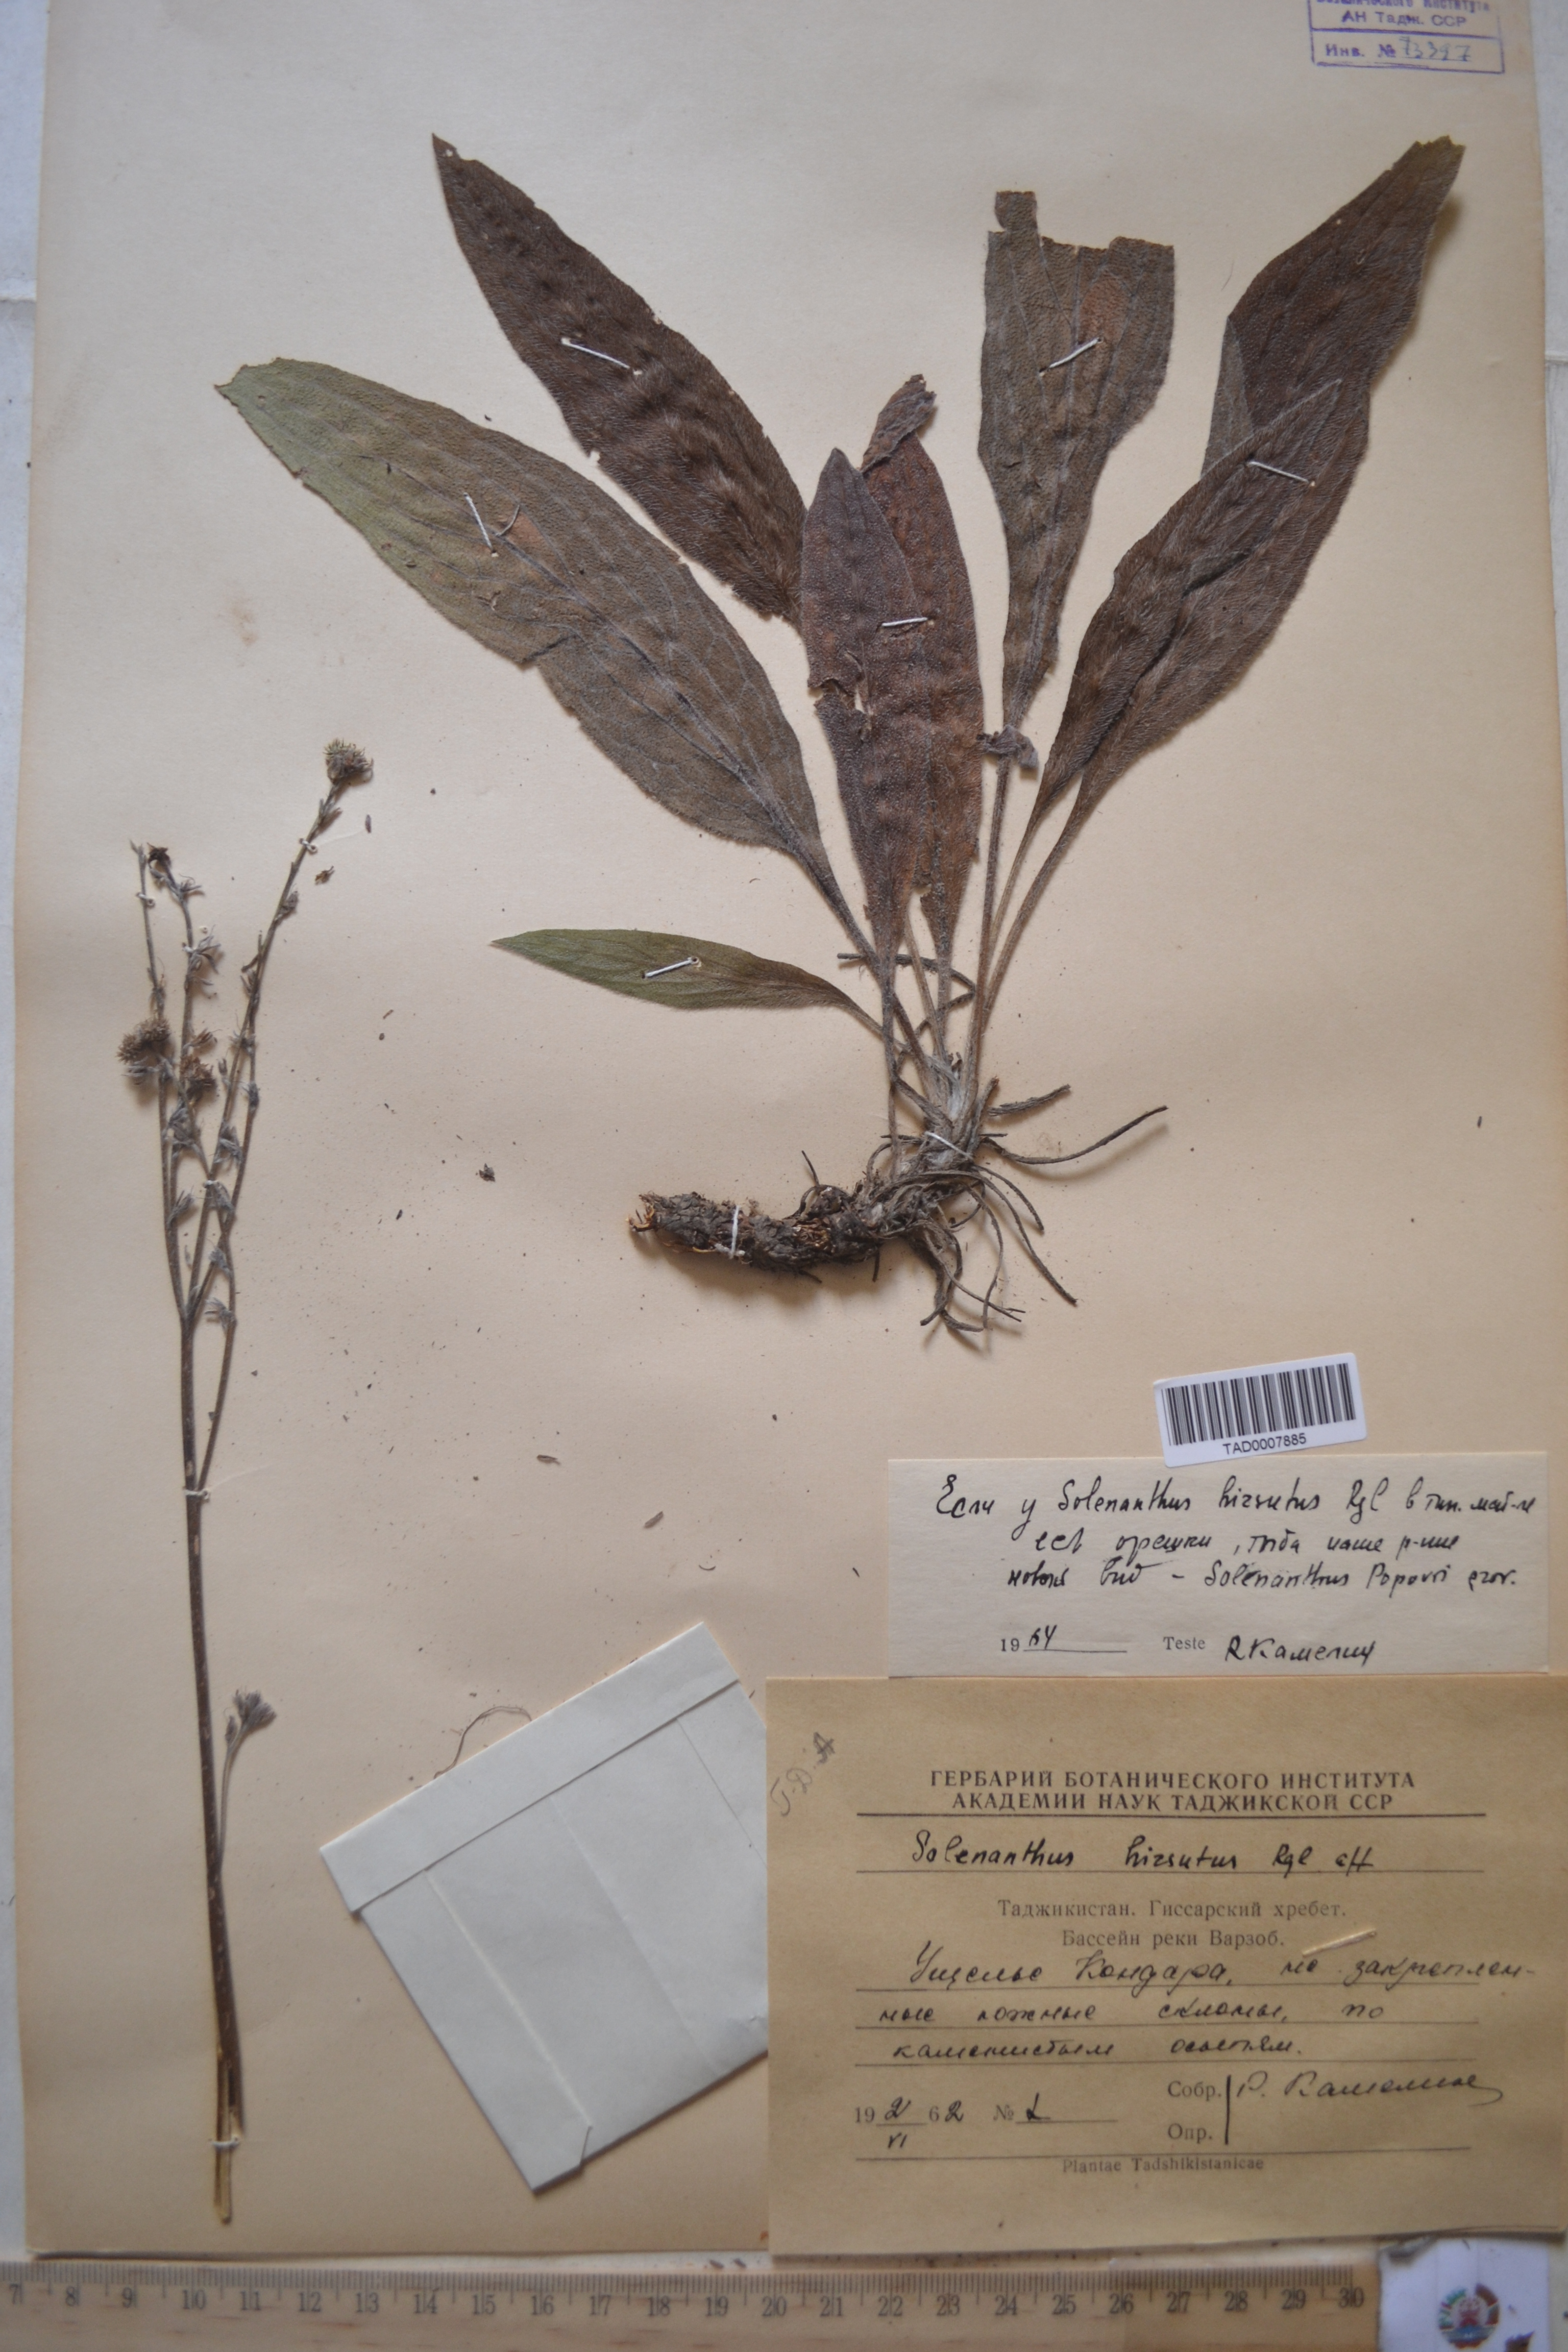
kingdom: Plantae
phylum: Tracheophyta
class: Magnoliopsida
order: Boraginales
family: Boraginaceae
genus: Solenanthus
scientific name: Solenanthus hirsutus
